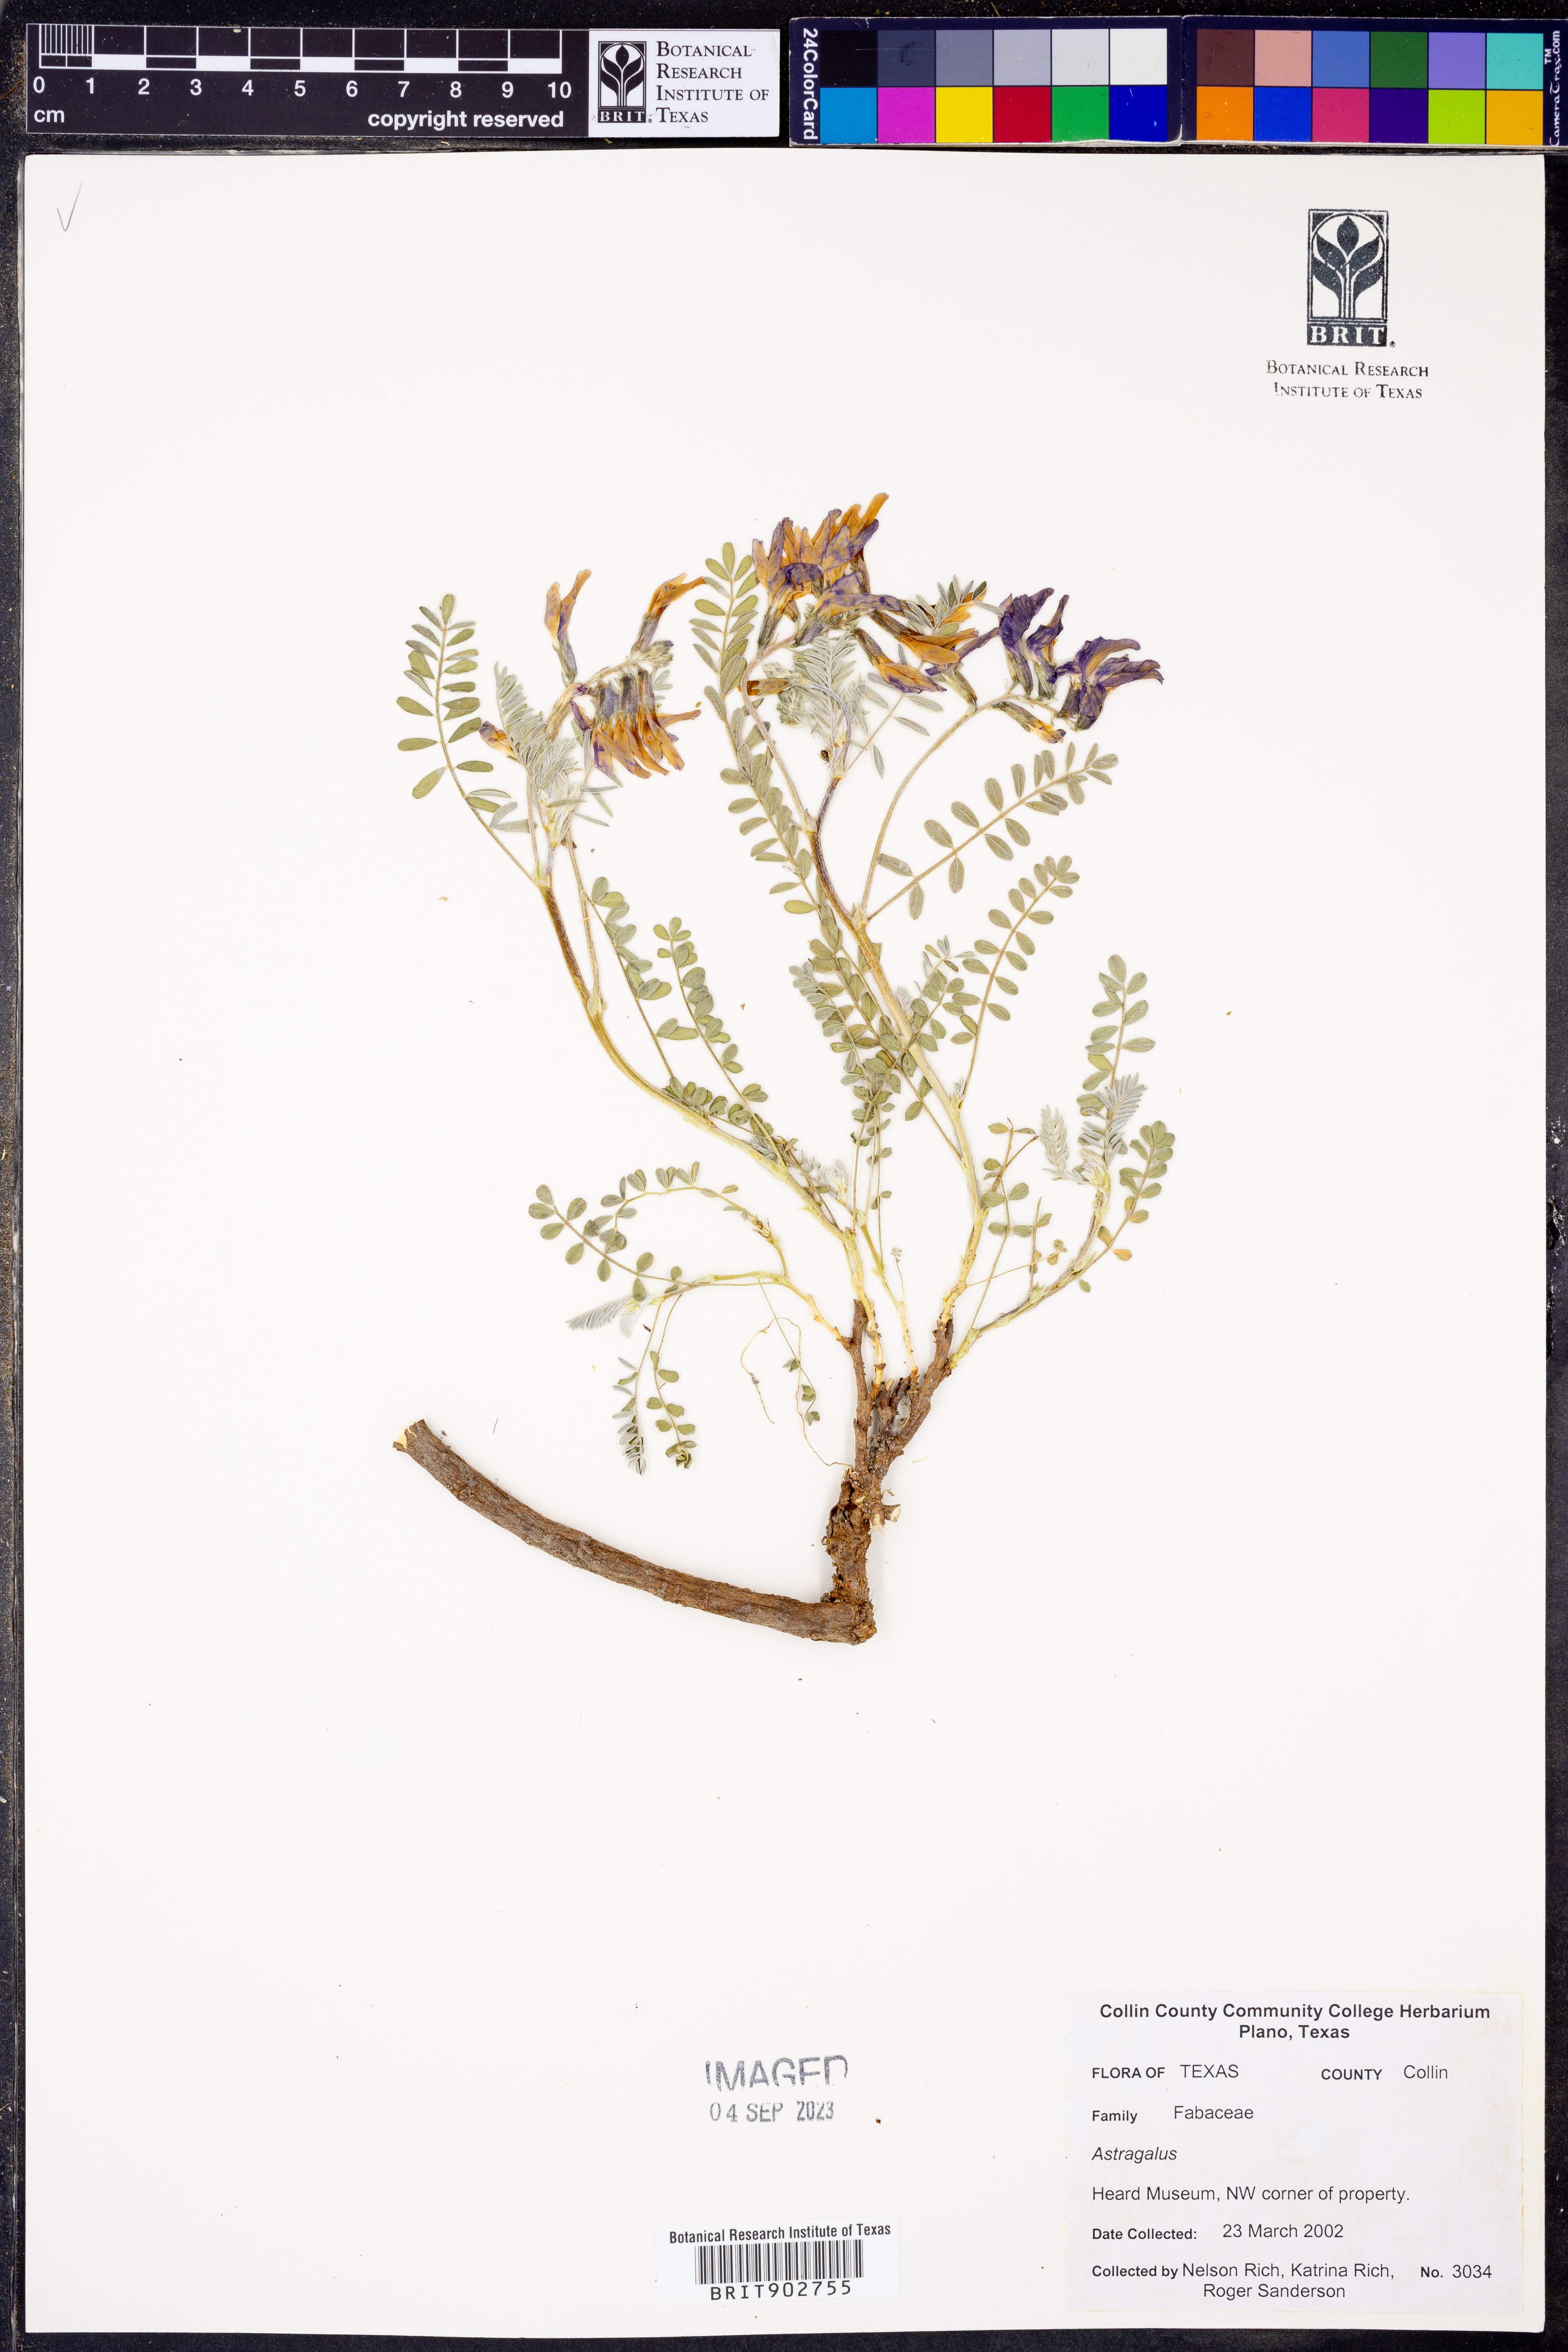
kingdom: Plantae
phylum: Tracheophyta
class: Magnoliopsida
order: Fabales
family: Fabaceae
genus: Astragalus
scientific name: Astragalus
